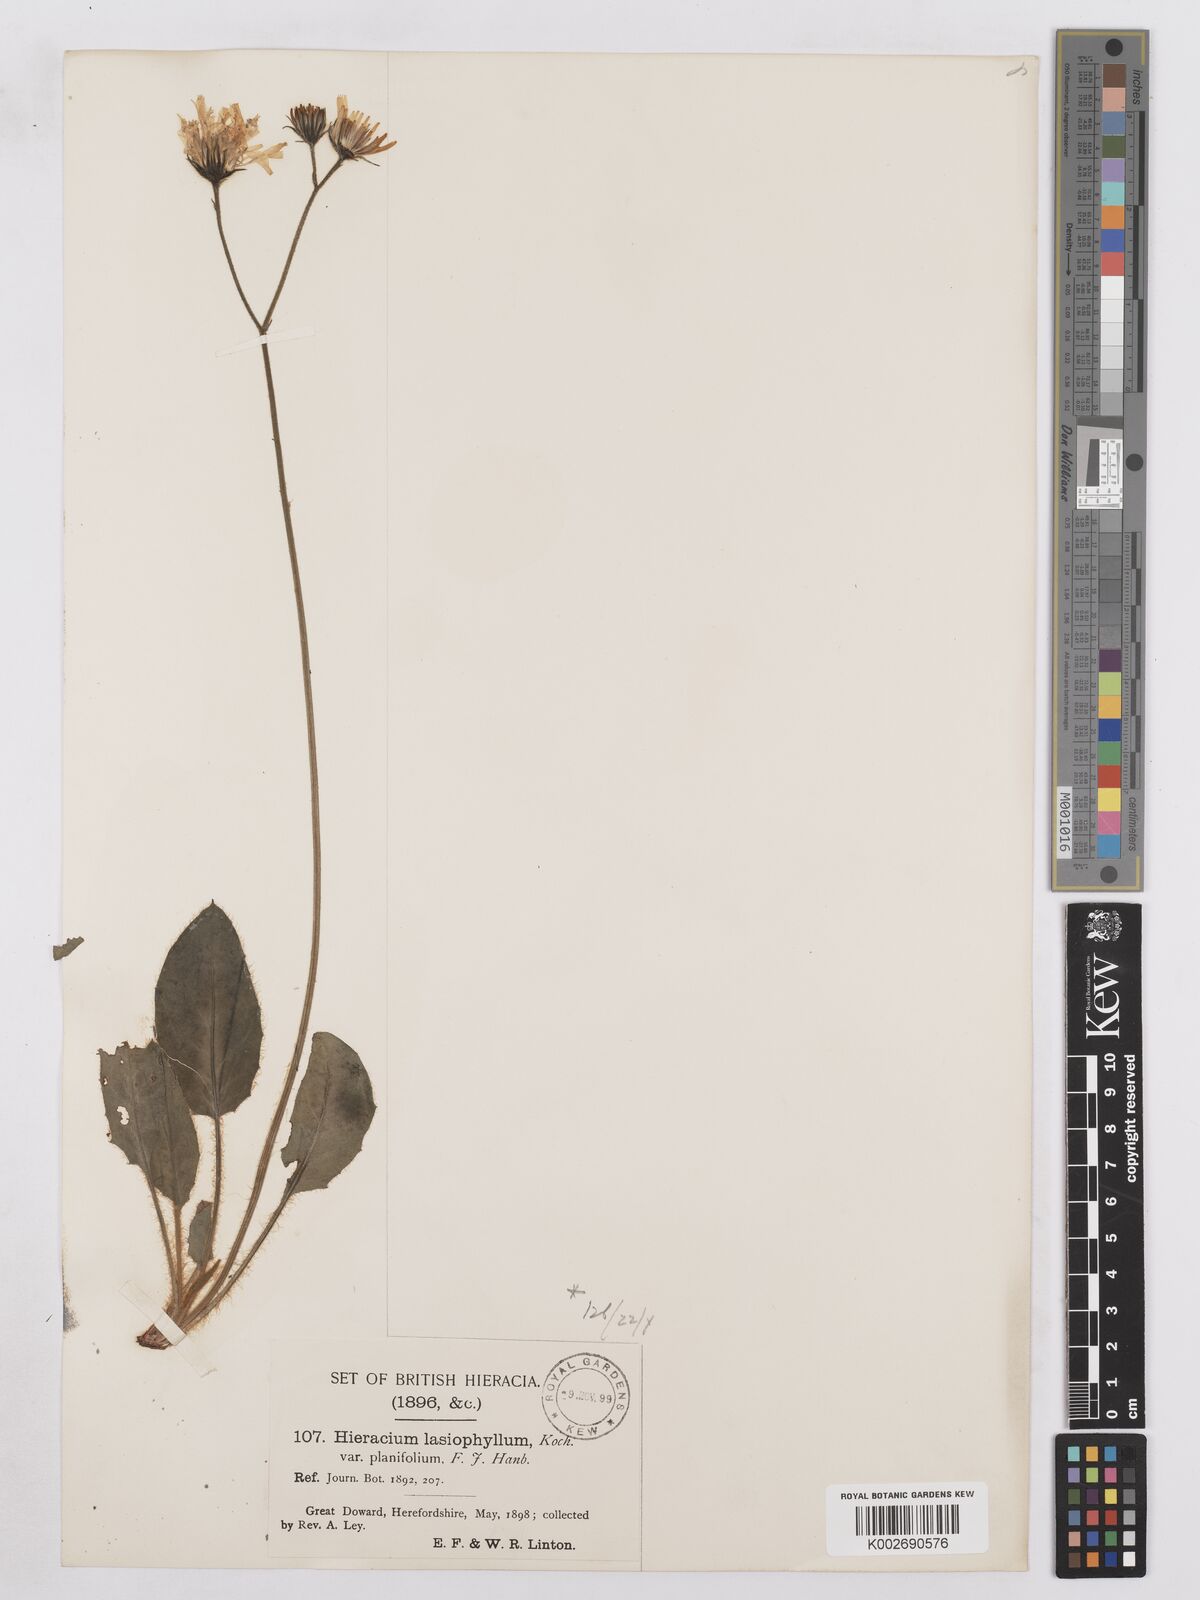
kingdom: Plantae
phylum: Tracheophyta
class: Magnoliopsida
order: Asterales
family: Asteraceae
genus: Hieracium
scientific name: Hieracium subplanifolium
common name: Flat-leaved hawkweed
